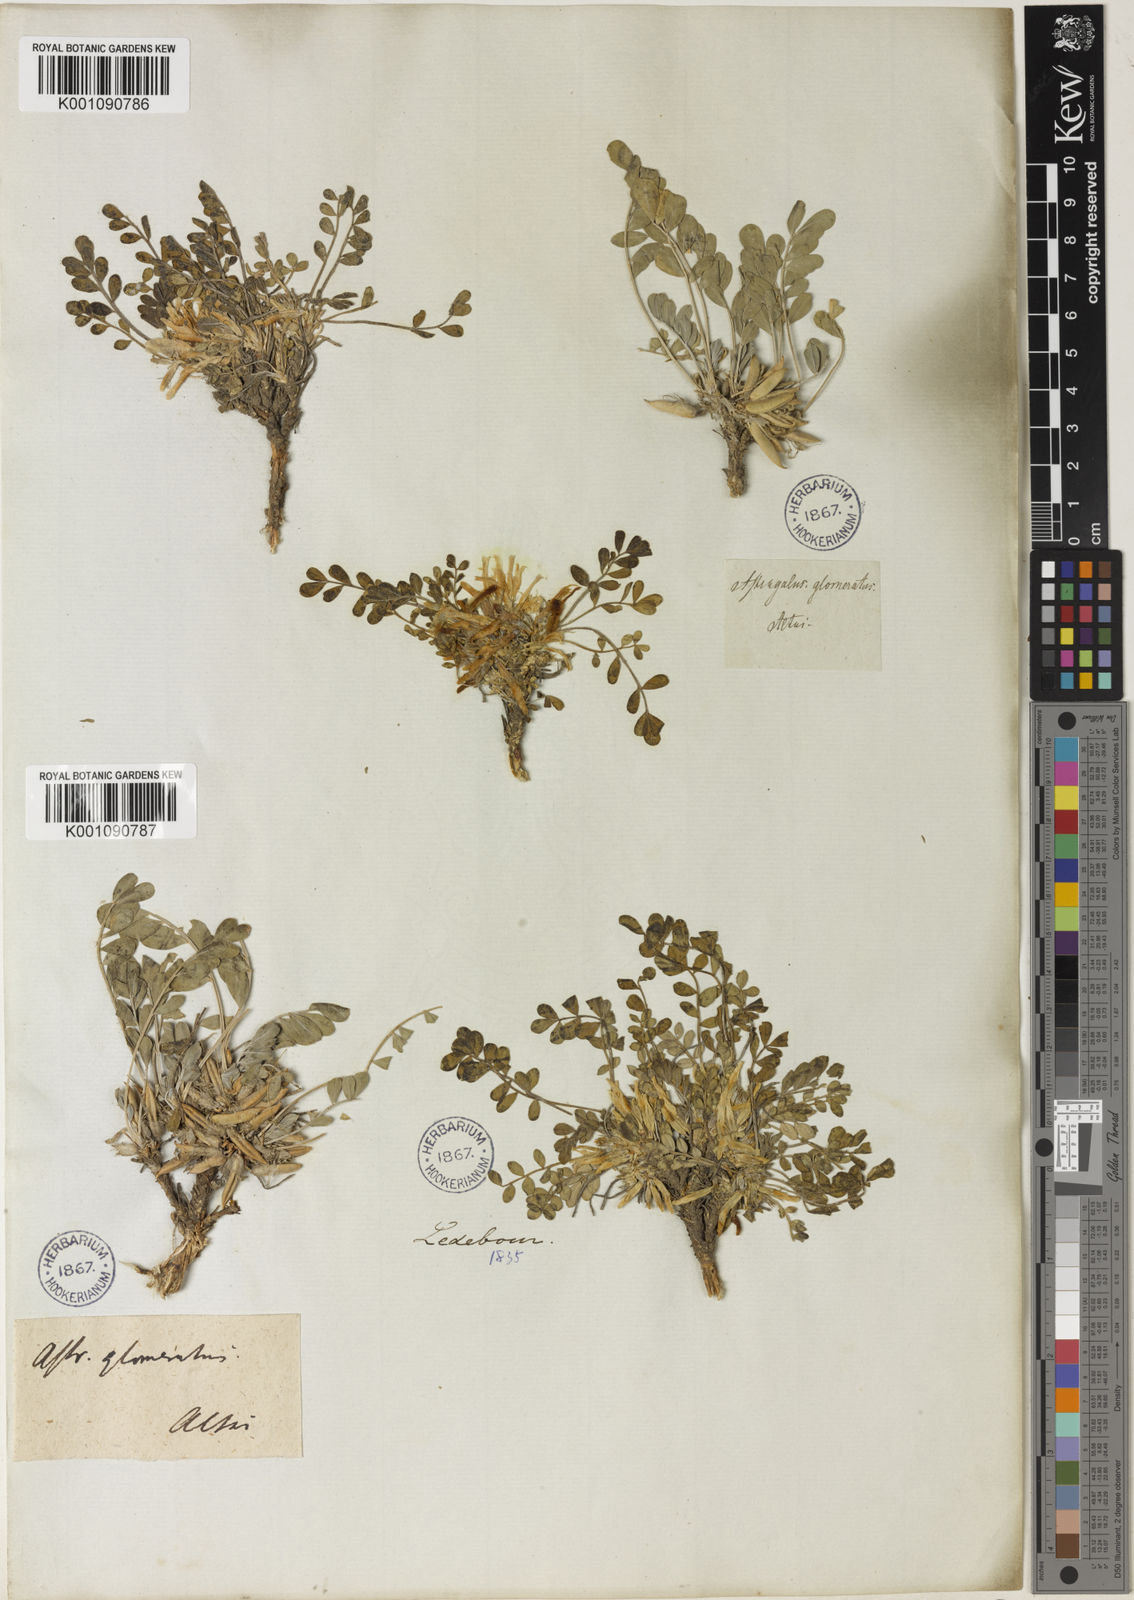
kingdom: Plantae
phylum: Tracheophyta
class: Magnoliopsida
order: Fabales
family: Fabaceae
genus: Astragalus
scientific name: Astragalus
